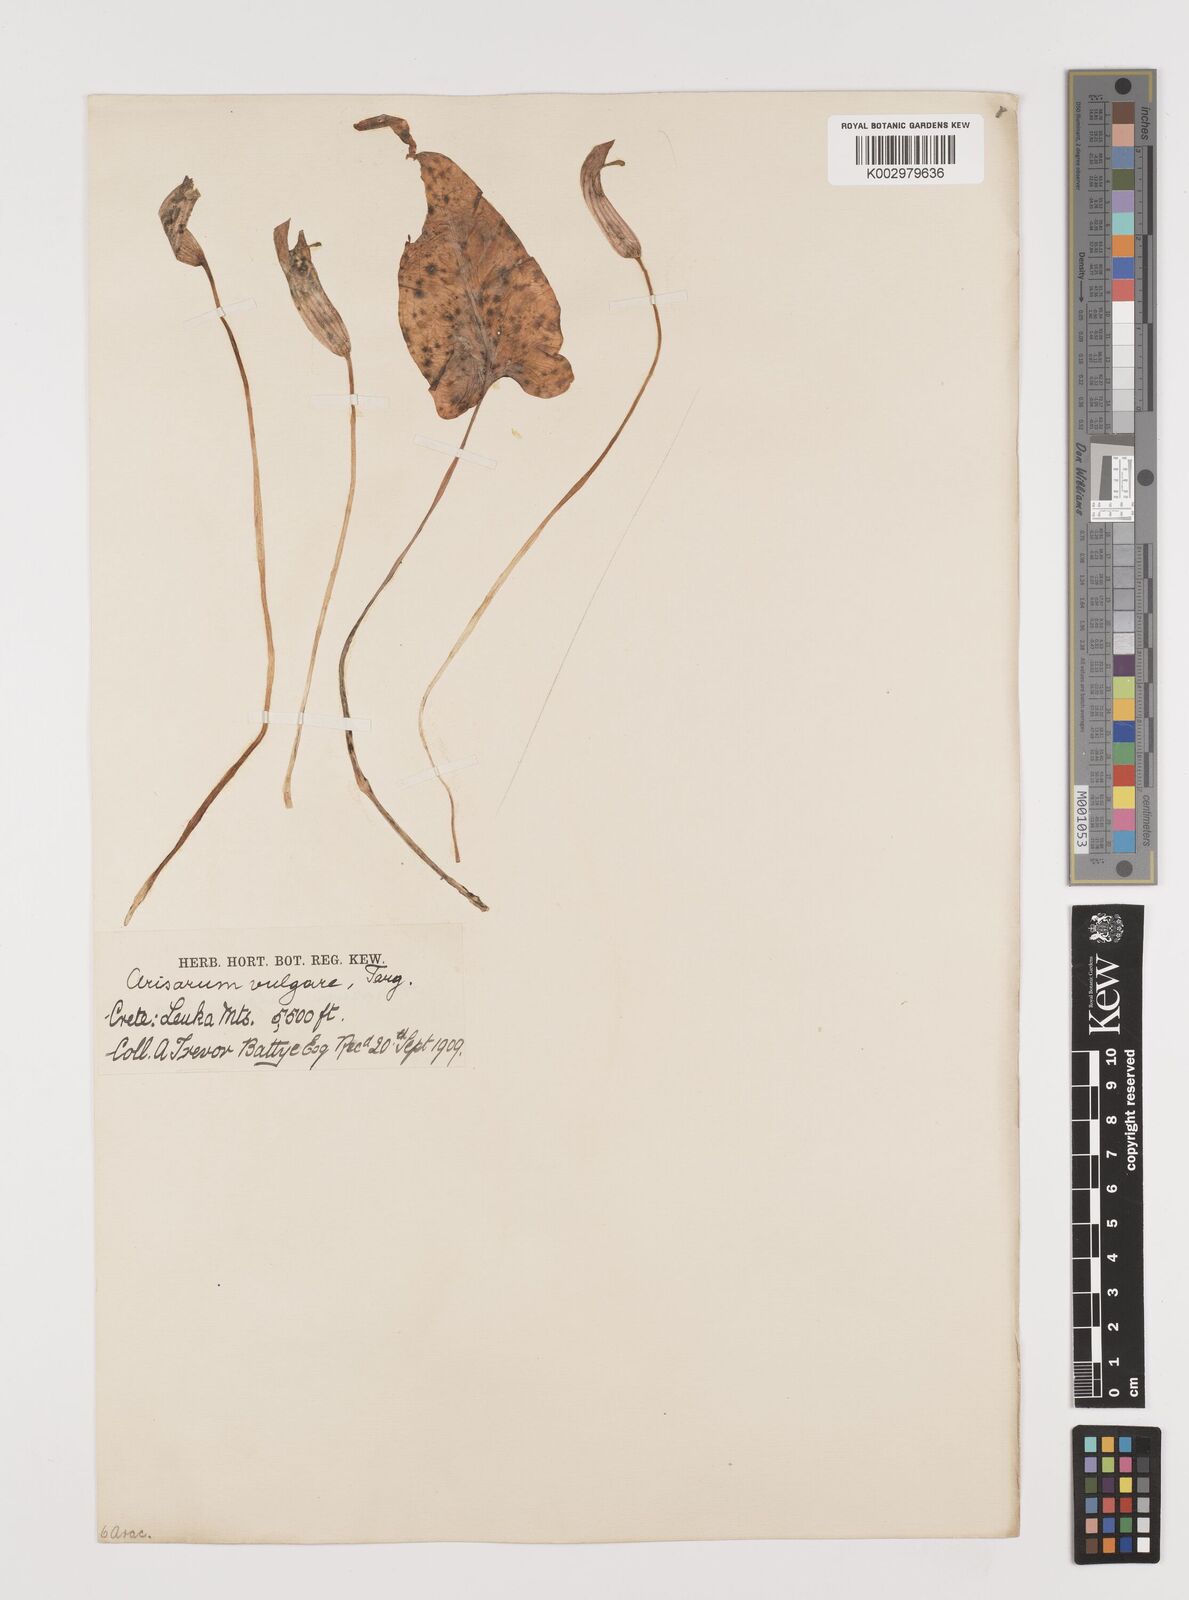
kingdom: Plantae
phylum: Tracheophyta
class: Liliopsida
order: Alismatales
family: Araceae
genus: Arisarum
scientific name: Arisarum vulgare
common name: Common arisarum
